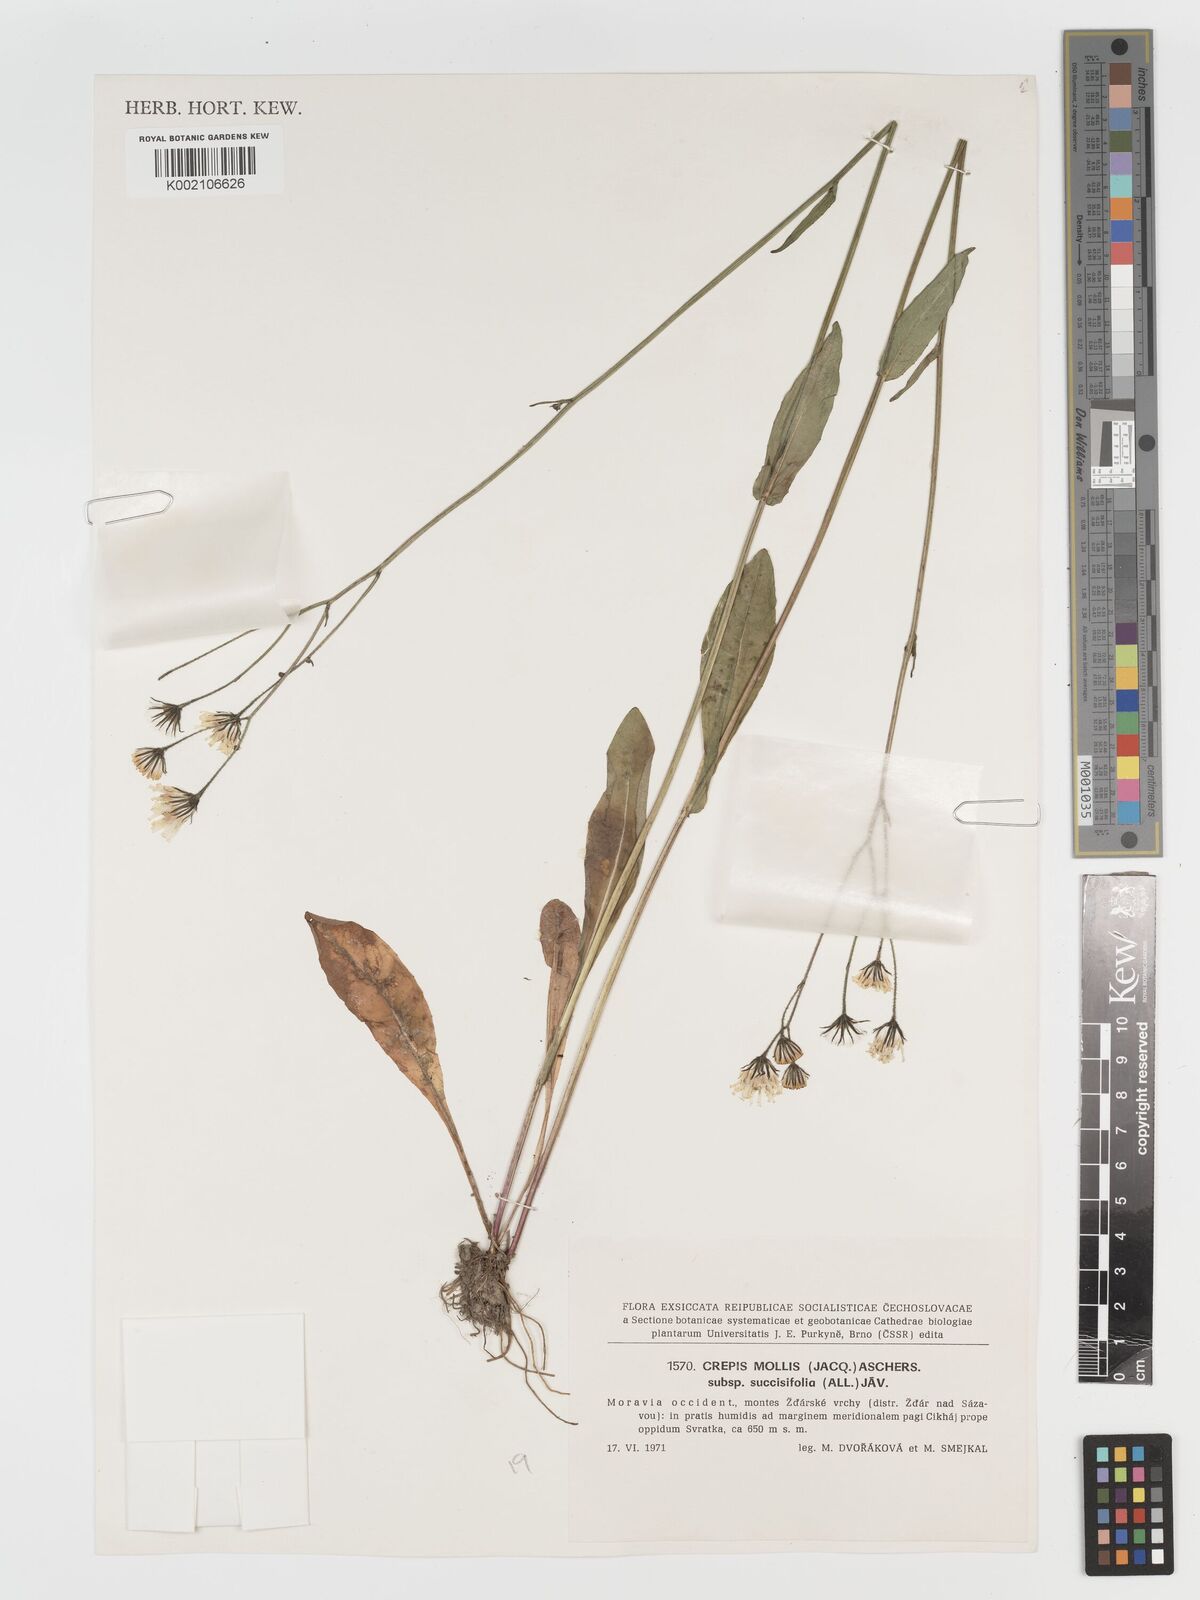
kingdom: Plantae
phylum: Tracheophyta
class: Magnoliopsida
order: Asterales
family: Asteraceae
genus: Crepis
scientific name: Crepis mollis
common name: Northern hawk's-beard
